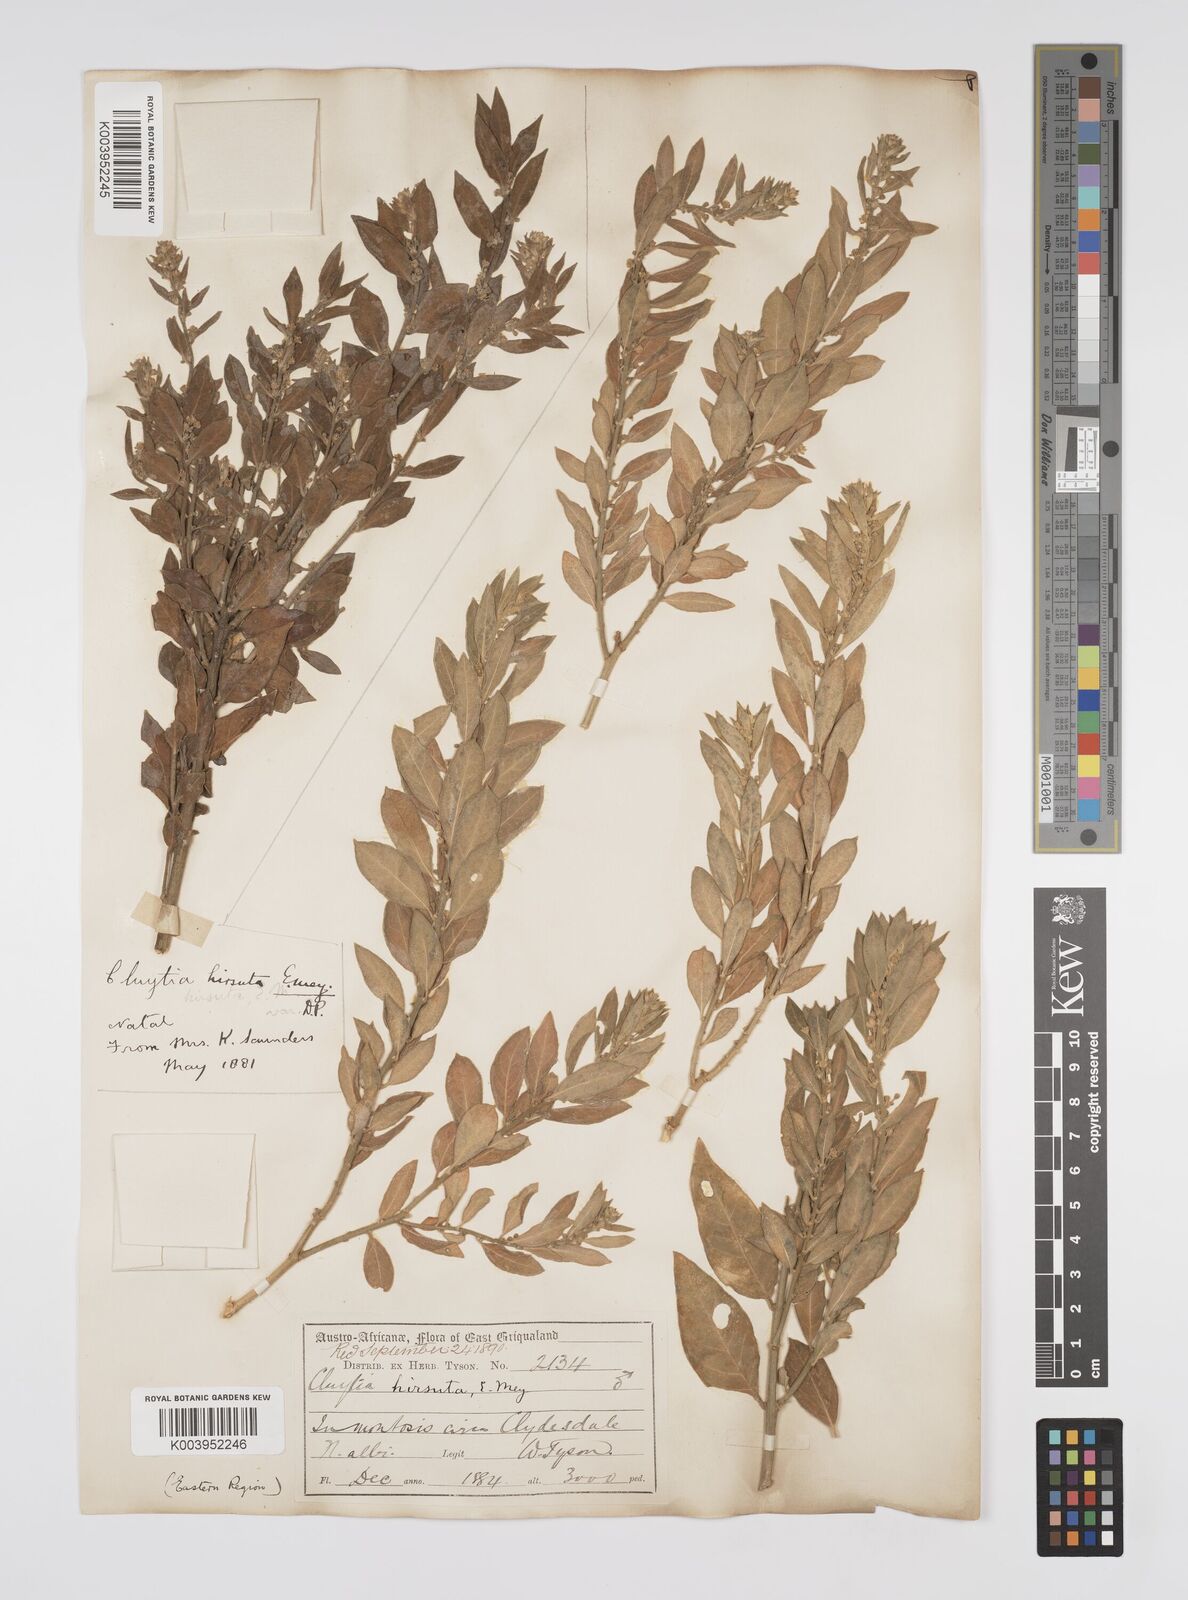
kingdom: Plantae
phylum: Tracheophyta
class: Magnoliopsida
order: Malpighiales
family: Peraceae
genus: Clutia
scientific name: Clutia affinis
